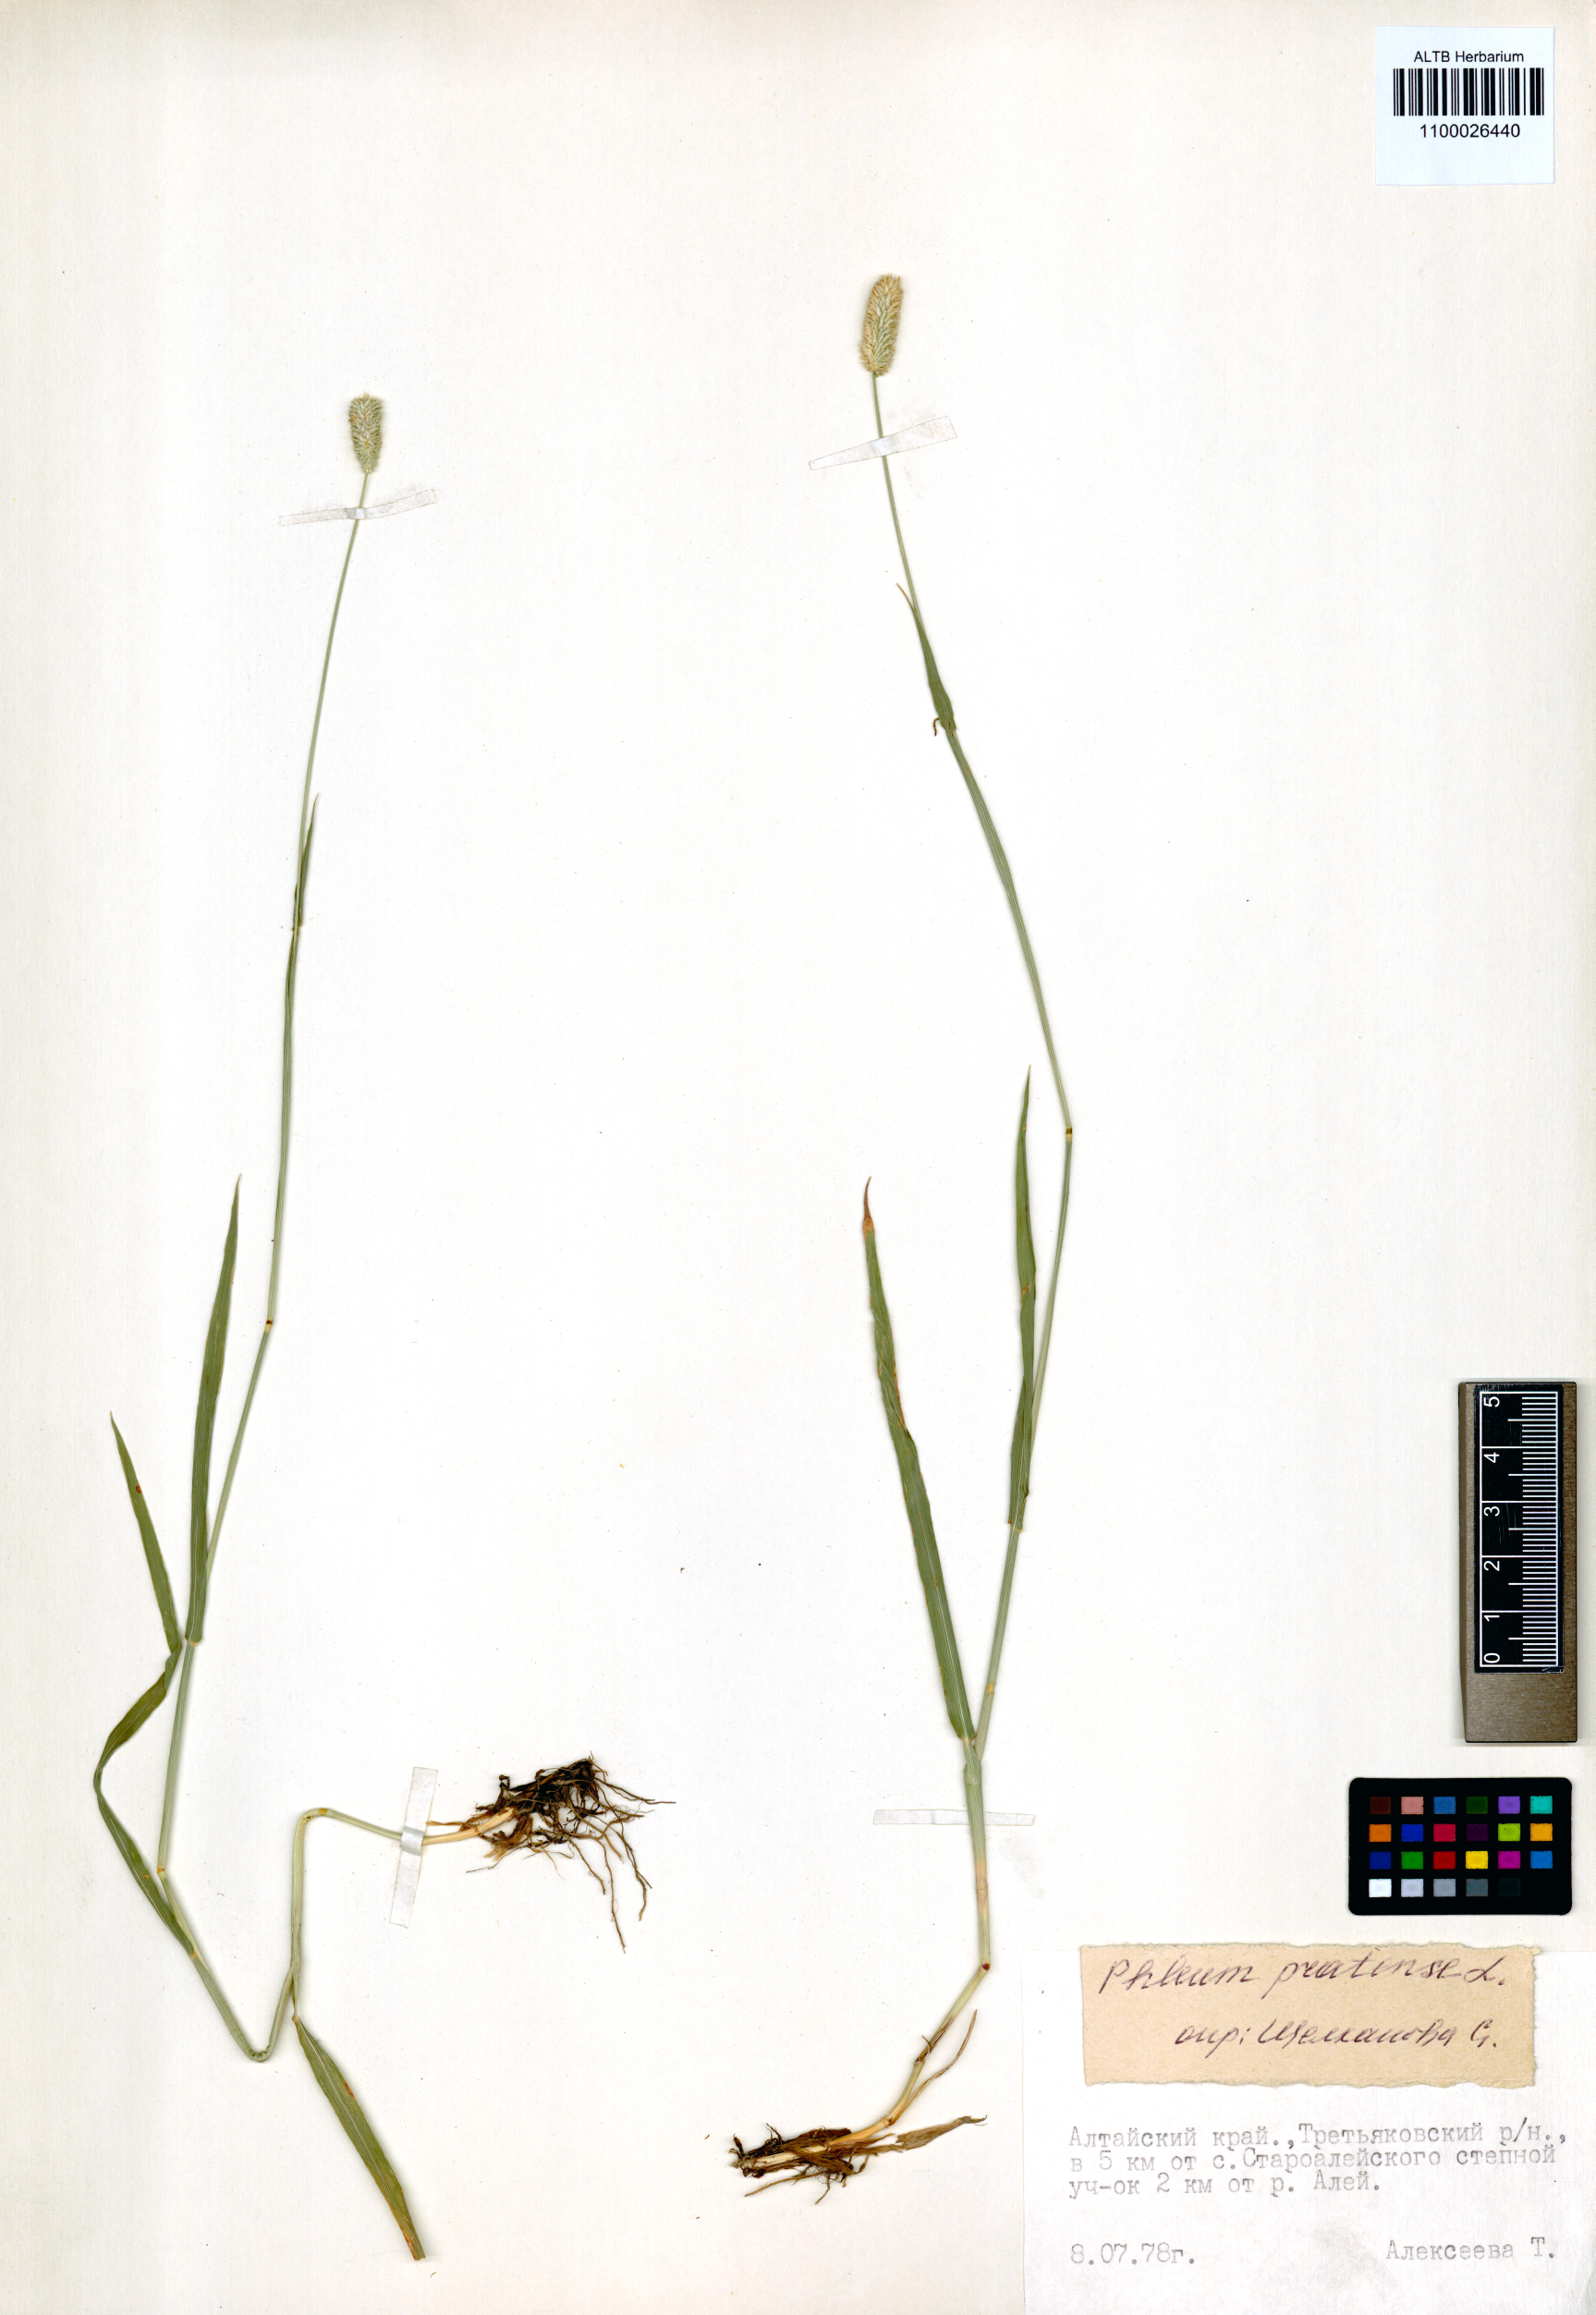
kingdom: Plantae
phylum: Tracheophyta
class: Liliopsida
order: Poales
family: Poaceae
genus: Phleum
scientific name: Phleum pratense
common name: Timothy grass
